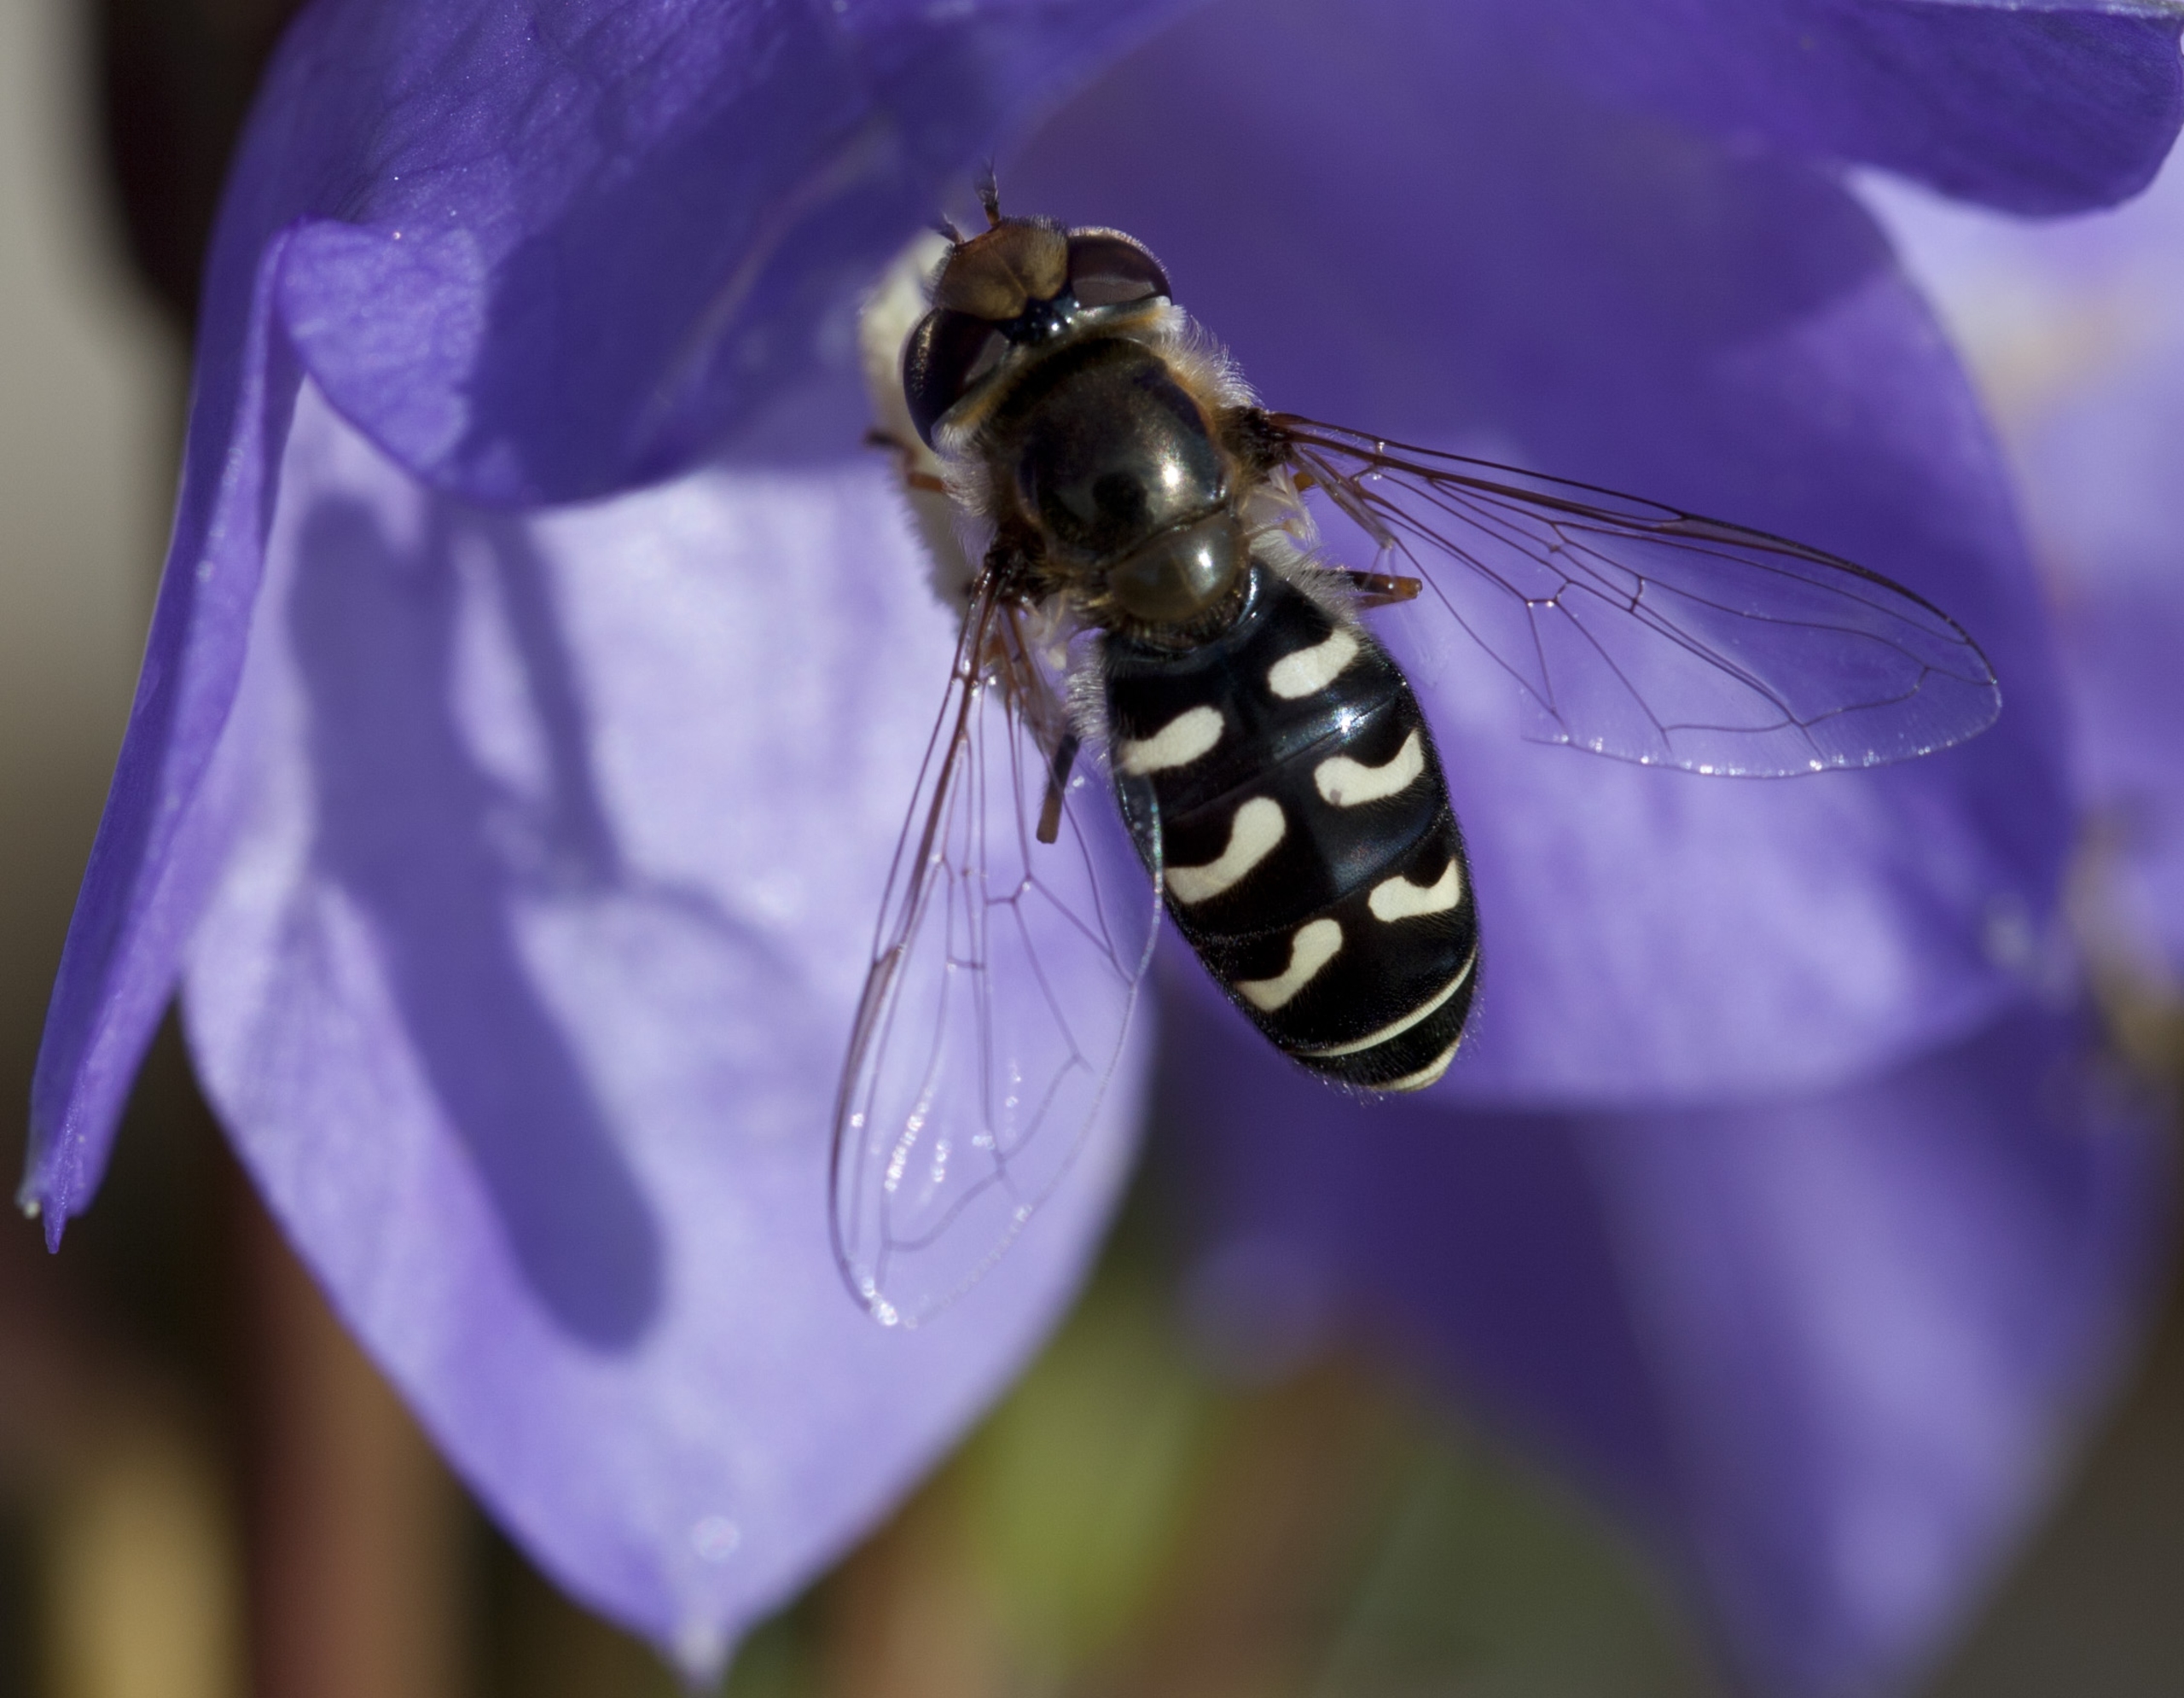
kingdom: Animalia
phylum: Arthropoda
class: Insecta
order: Diptera
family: Syrphidae
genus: Scaeva
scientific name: Scaeva pyrastri
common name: Hvidplettet agersvirreflue
